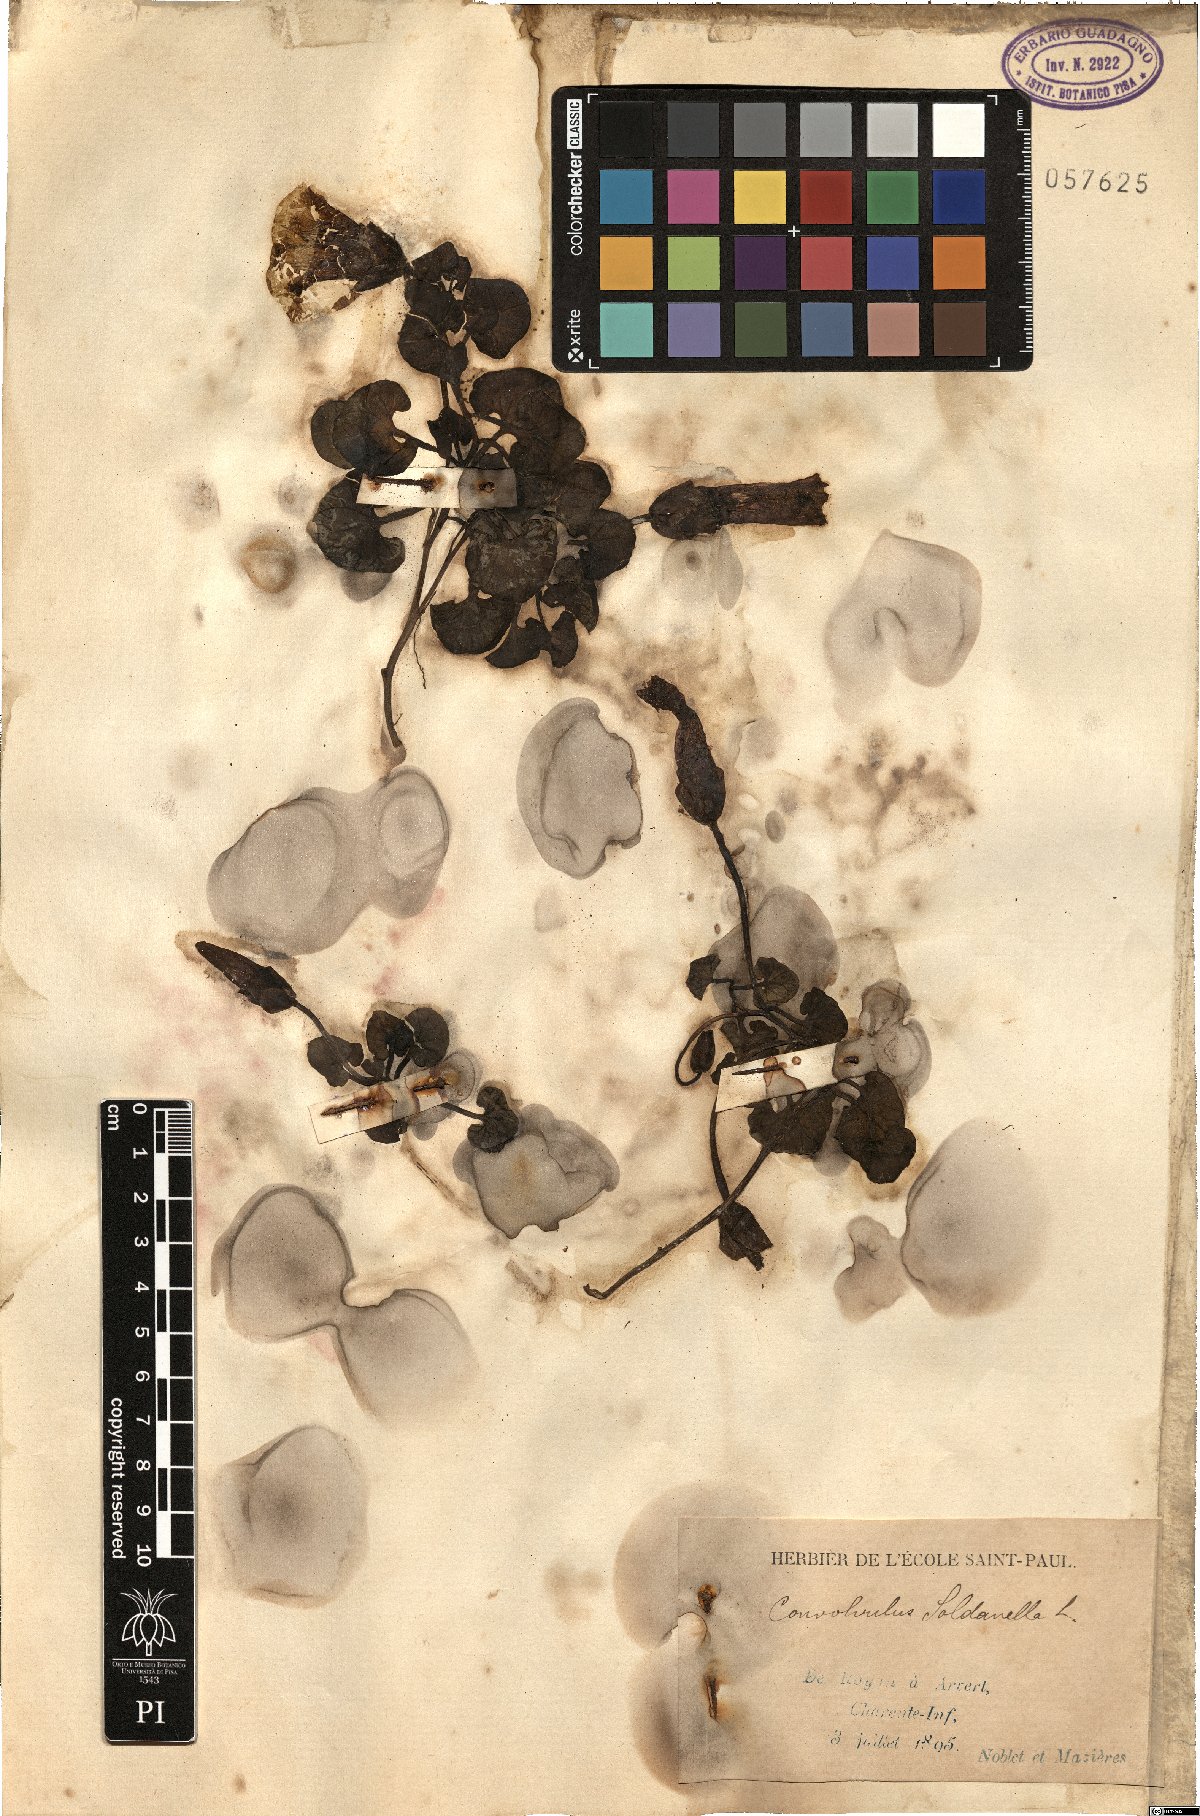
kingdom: Plantae
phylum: Tracheophyta
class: Magnoliopsida
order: Solanales
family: Convolvulaceae
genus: Calystegia
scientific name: Calystegia soldanella
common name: Sea bindweed
